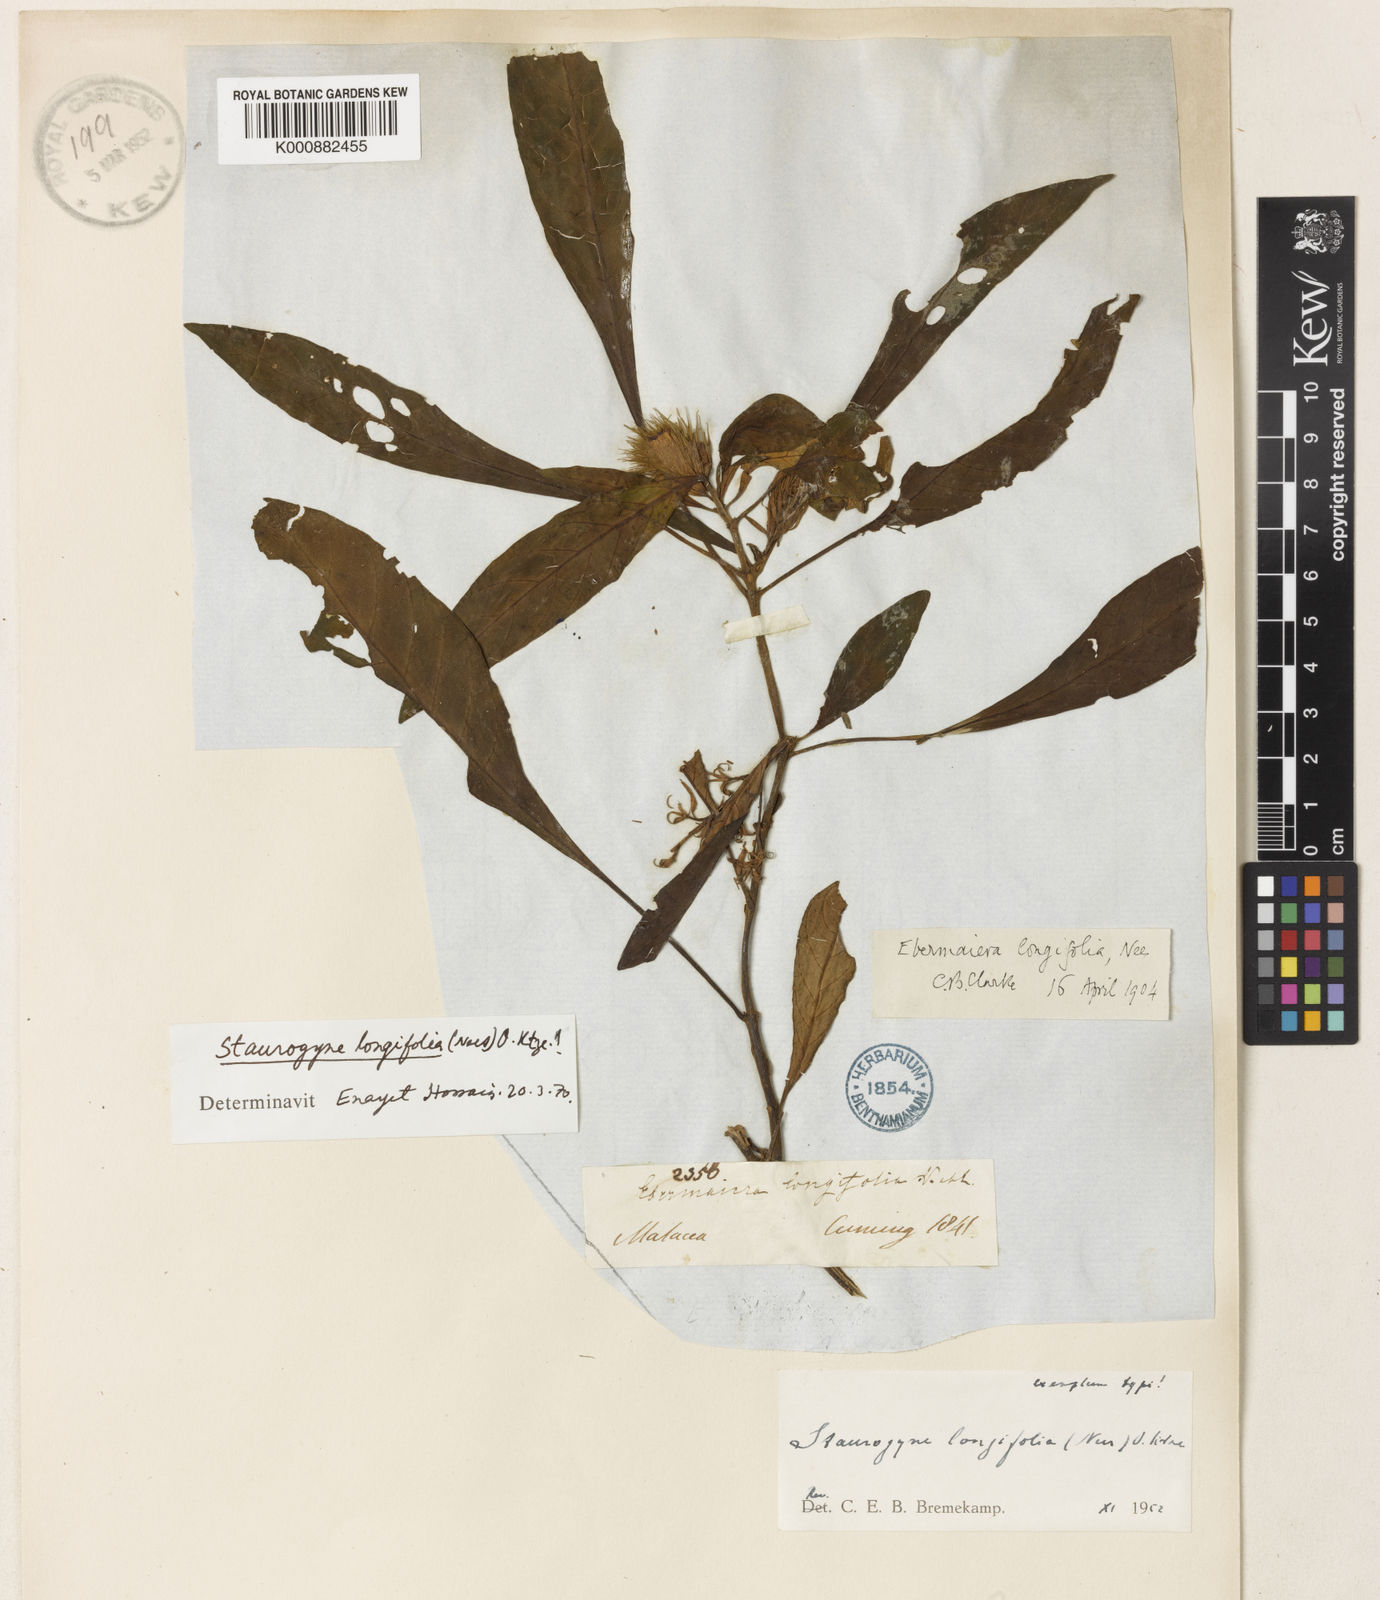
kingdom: Plantae
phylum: Tracheophyta
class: Magnoliopsida
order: Lamiales
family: Acanthaceae
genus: Staurogyne
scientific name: Staurogyne longifolia
